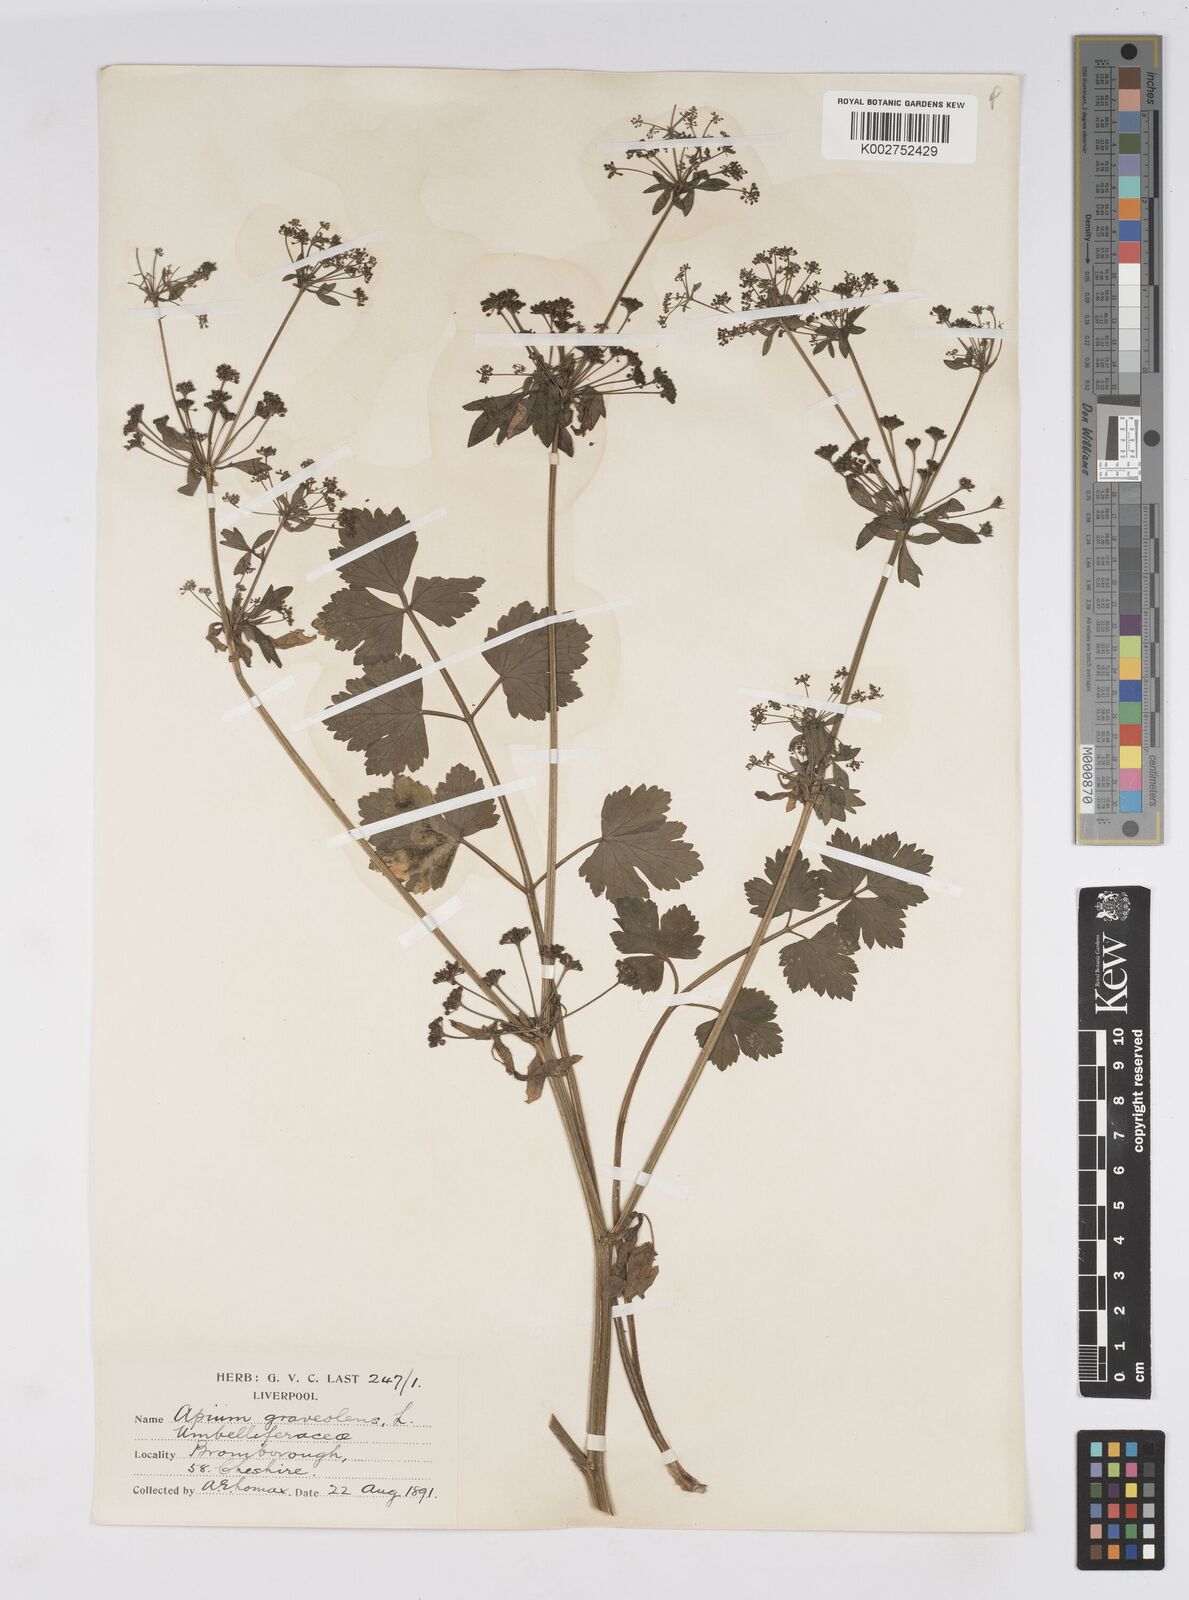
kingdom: Plantae
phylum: Tracheophyta
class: Magnoliopsida
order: Apiales
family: Apiaceae
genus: Apium
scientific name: Apium graveolens
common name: Wild celery
